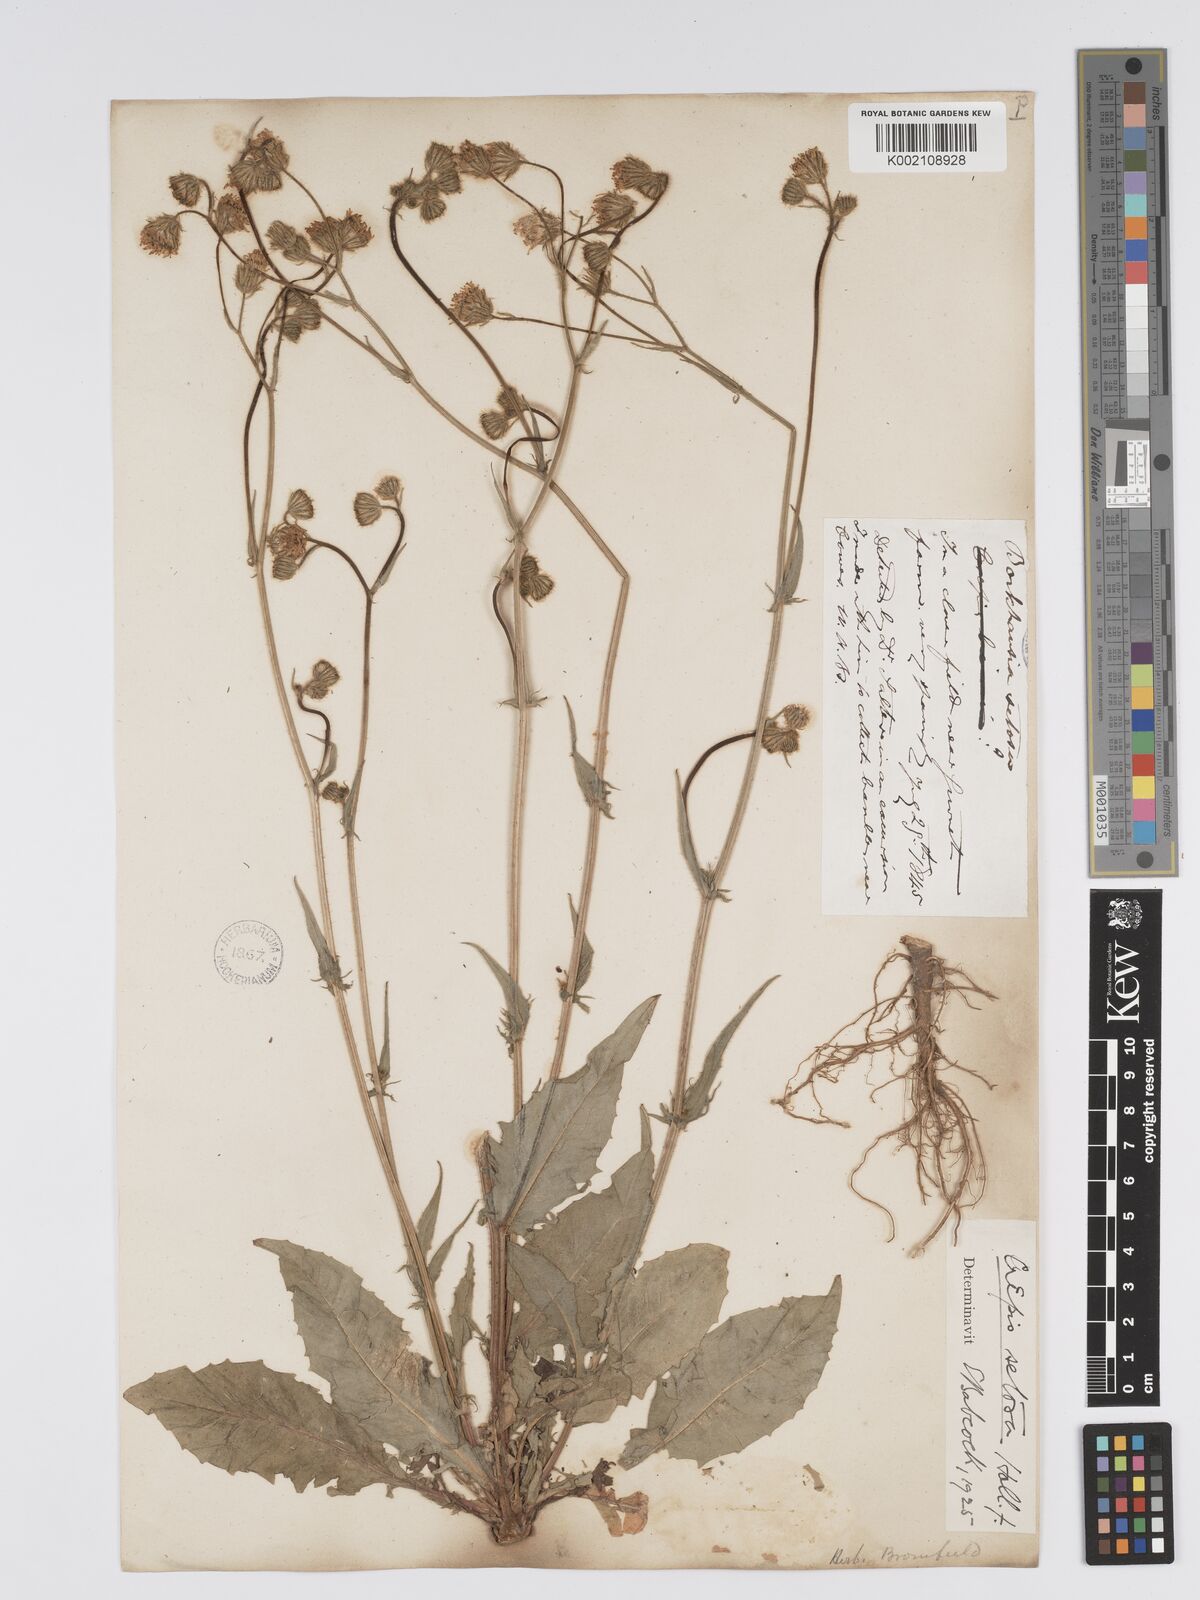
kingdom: Plantae
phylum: Tracheophyta
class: Magnoliopsida
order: Asterales
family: Asteraceae
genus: Crepis
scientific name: Crepis setosa
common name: Bristly hawk's-beard
